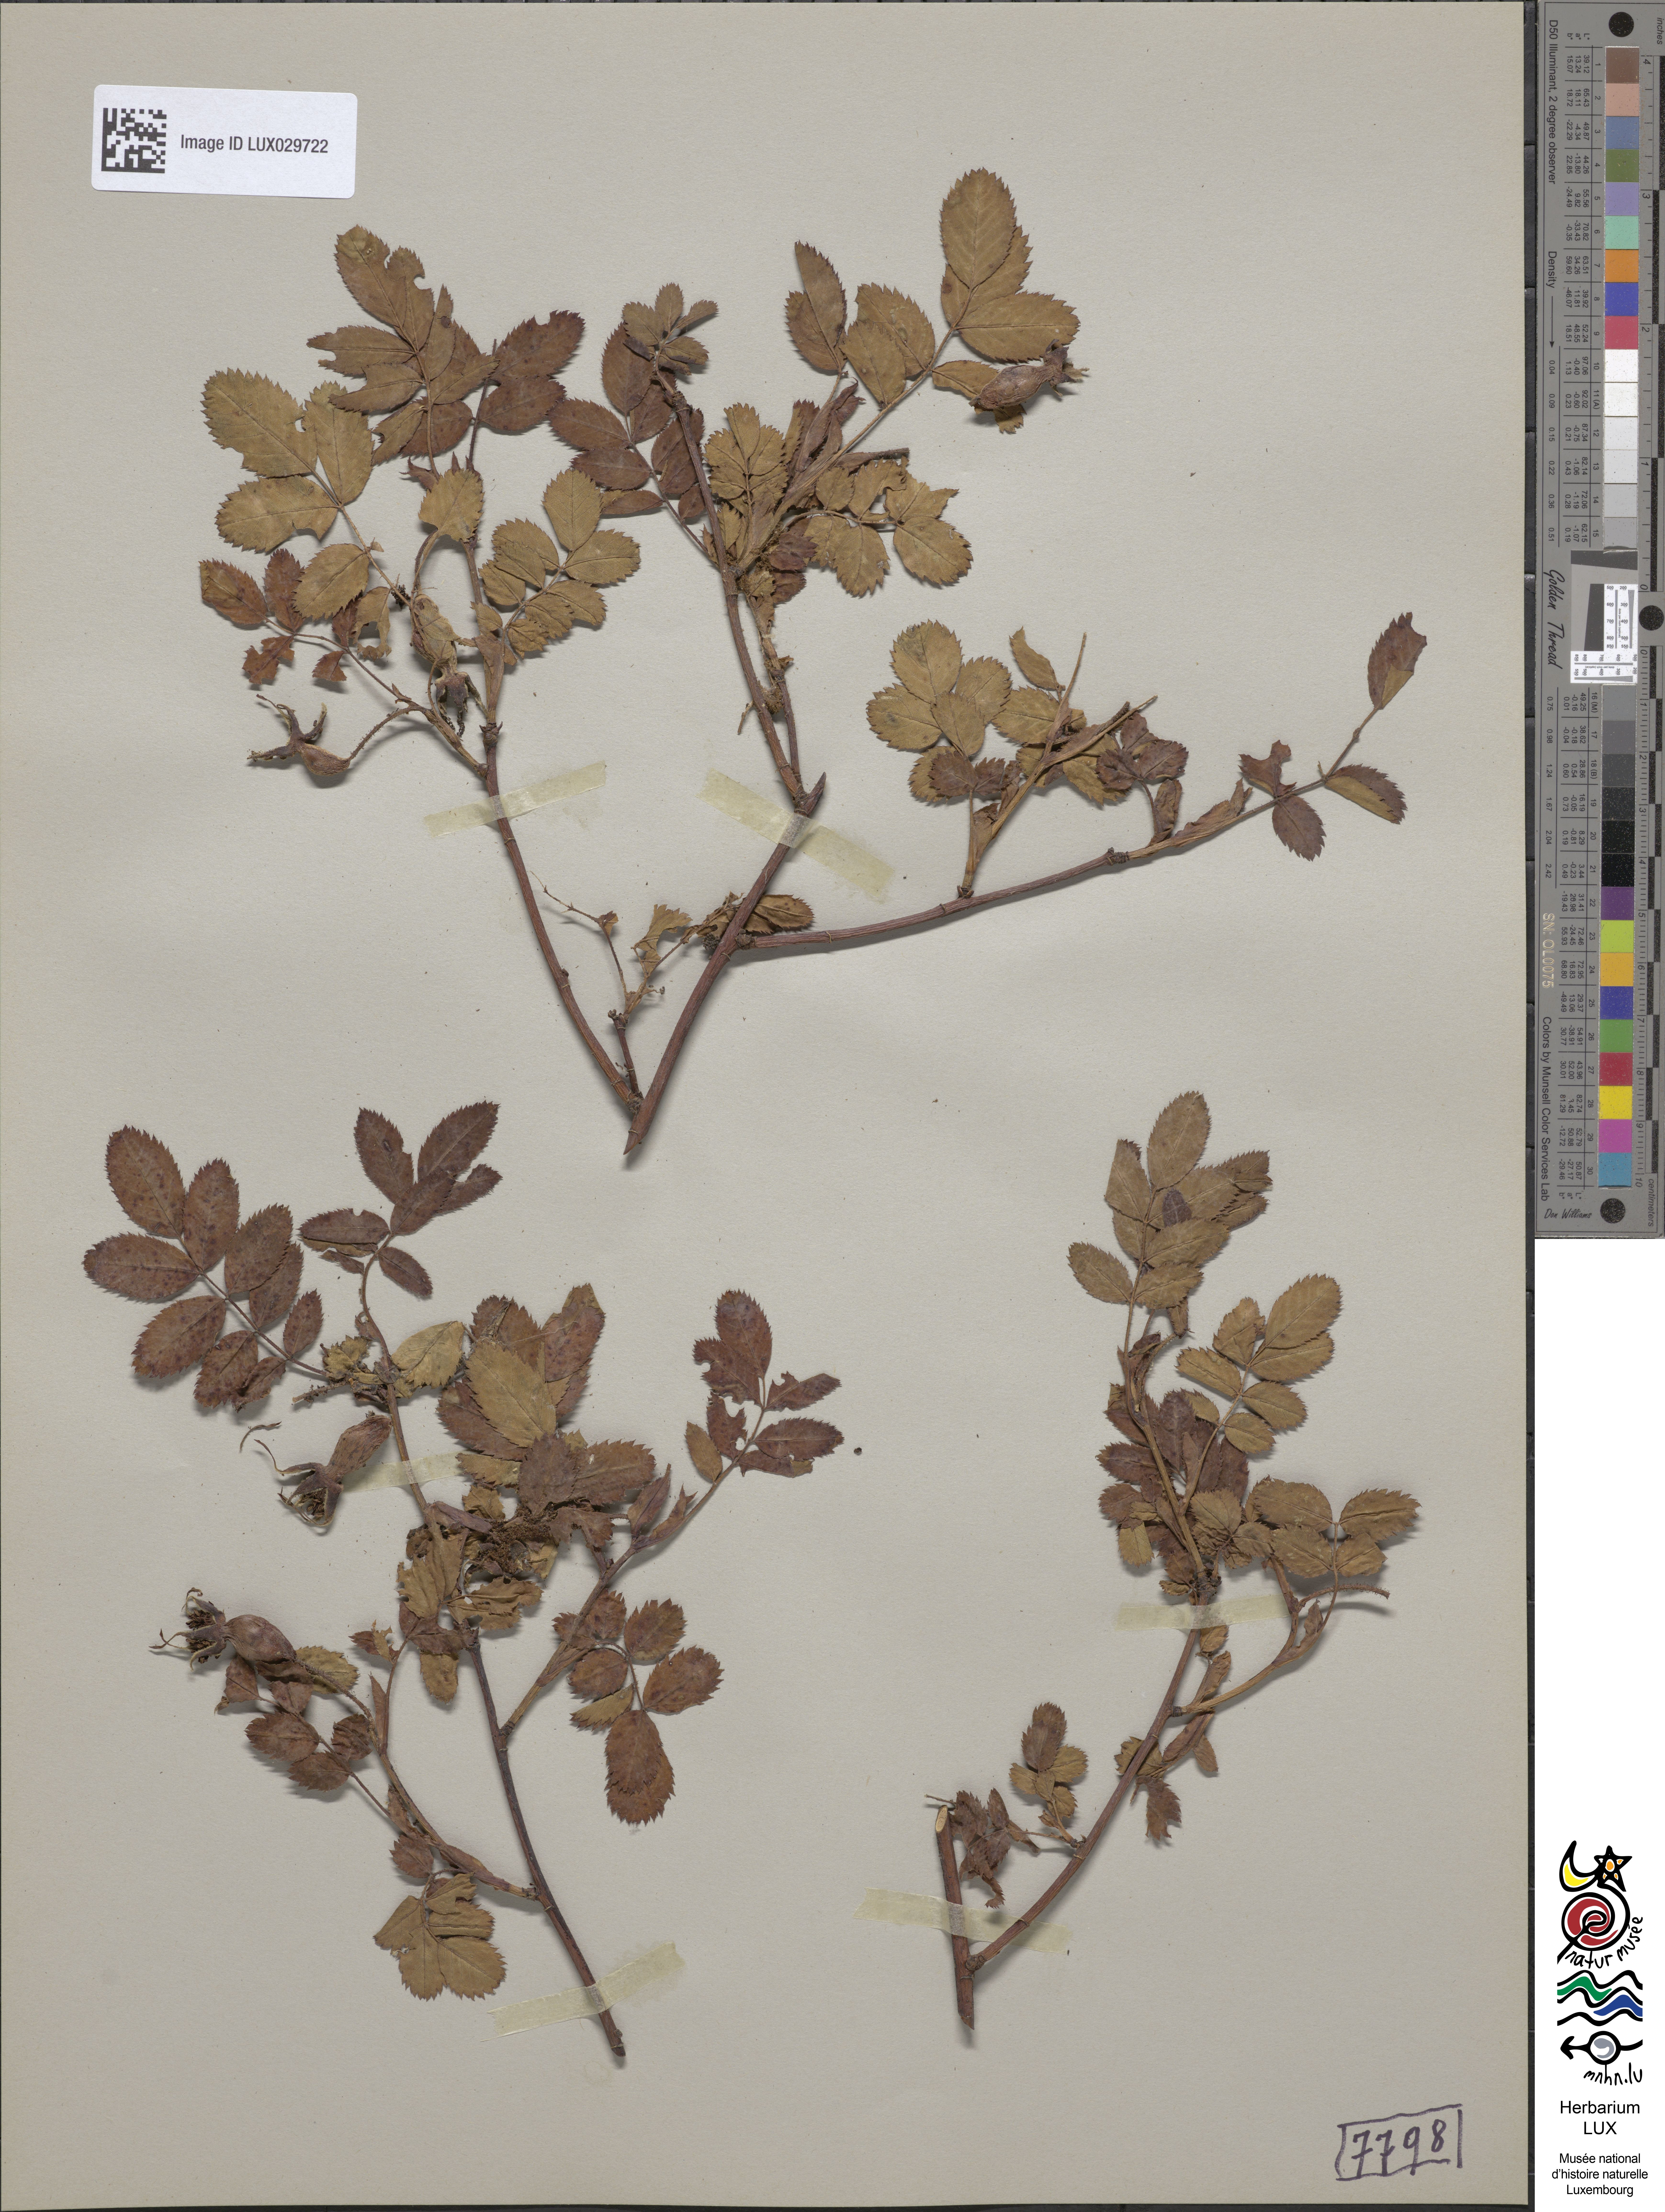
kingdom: Plantae
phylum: Tracheophyta
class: Magnoliopsida
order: Rosales
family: Rosaceae
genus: Rosa
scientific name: Rosa pendulina
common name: Alpine rose
